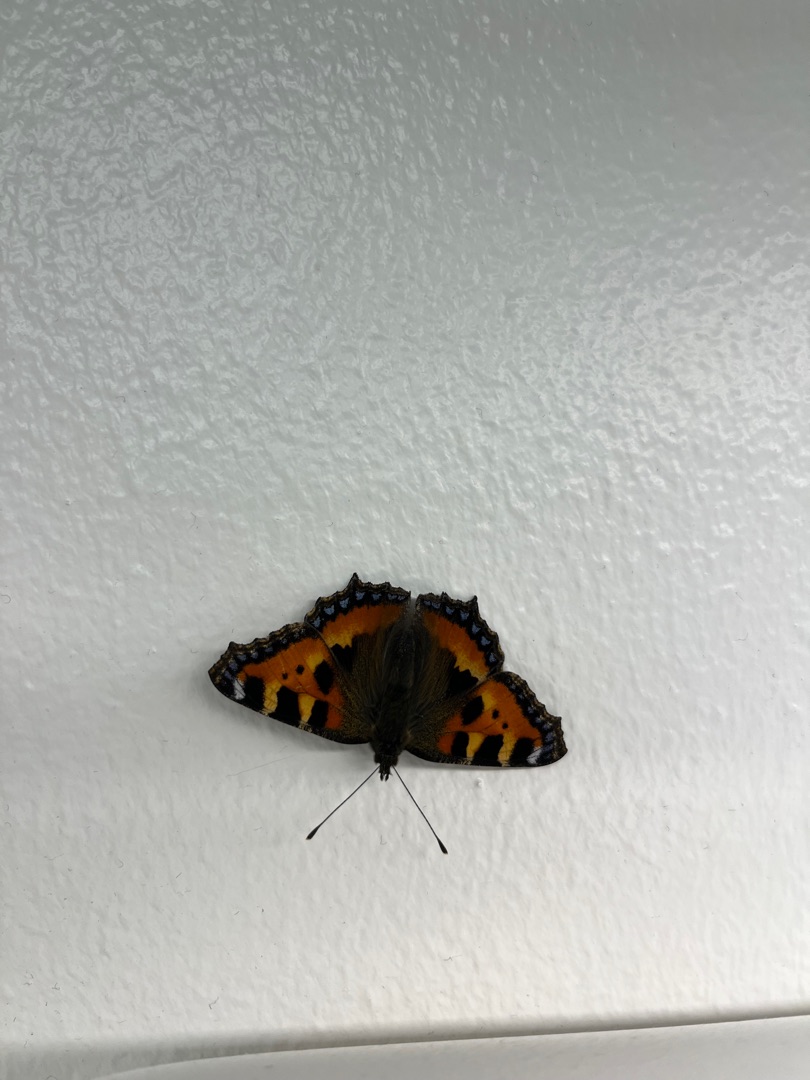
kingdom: Animalia
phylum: Arthropoda
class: Insecta
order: Lepidoptera
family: Nymphalidae
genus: Aglais
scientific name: Aglais urticae
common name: Nældens takvinge
